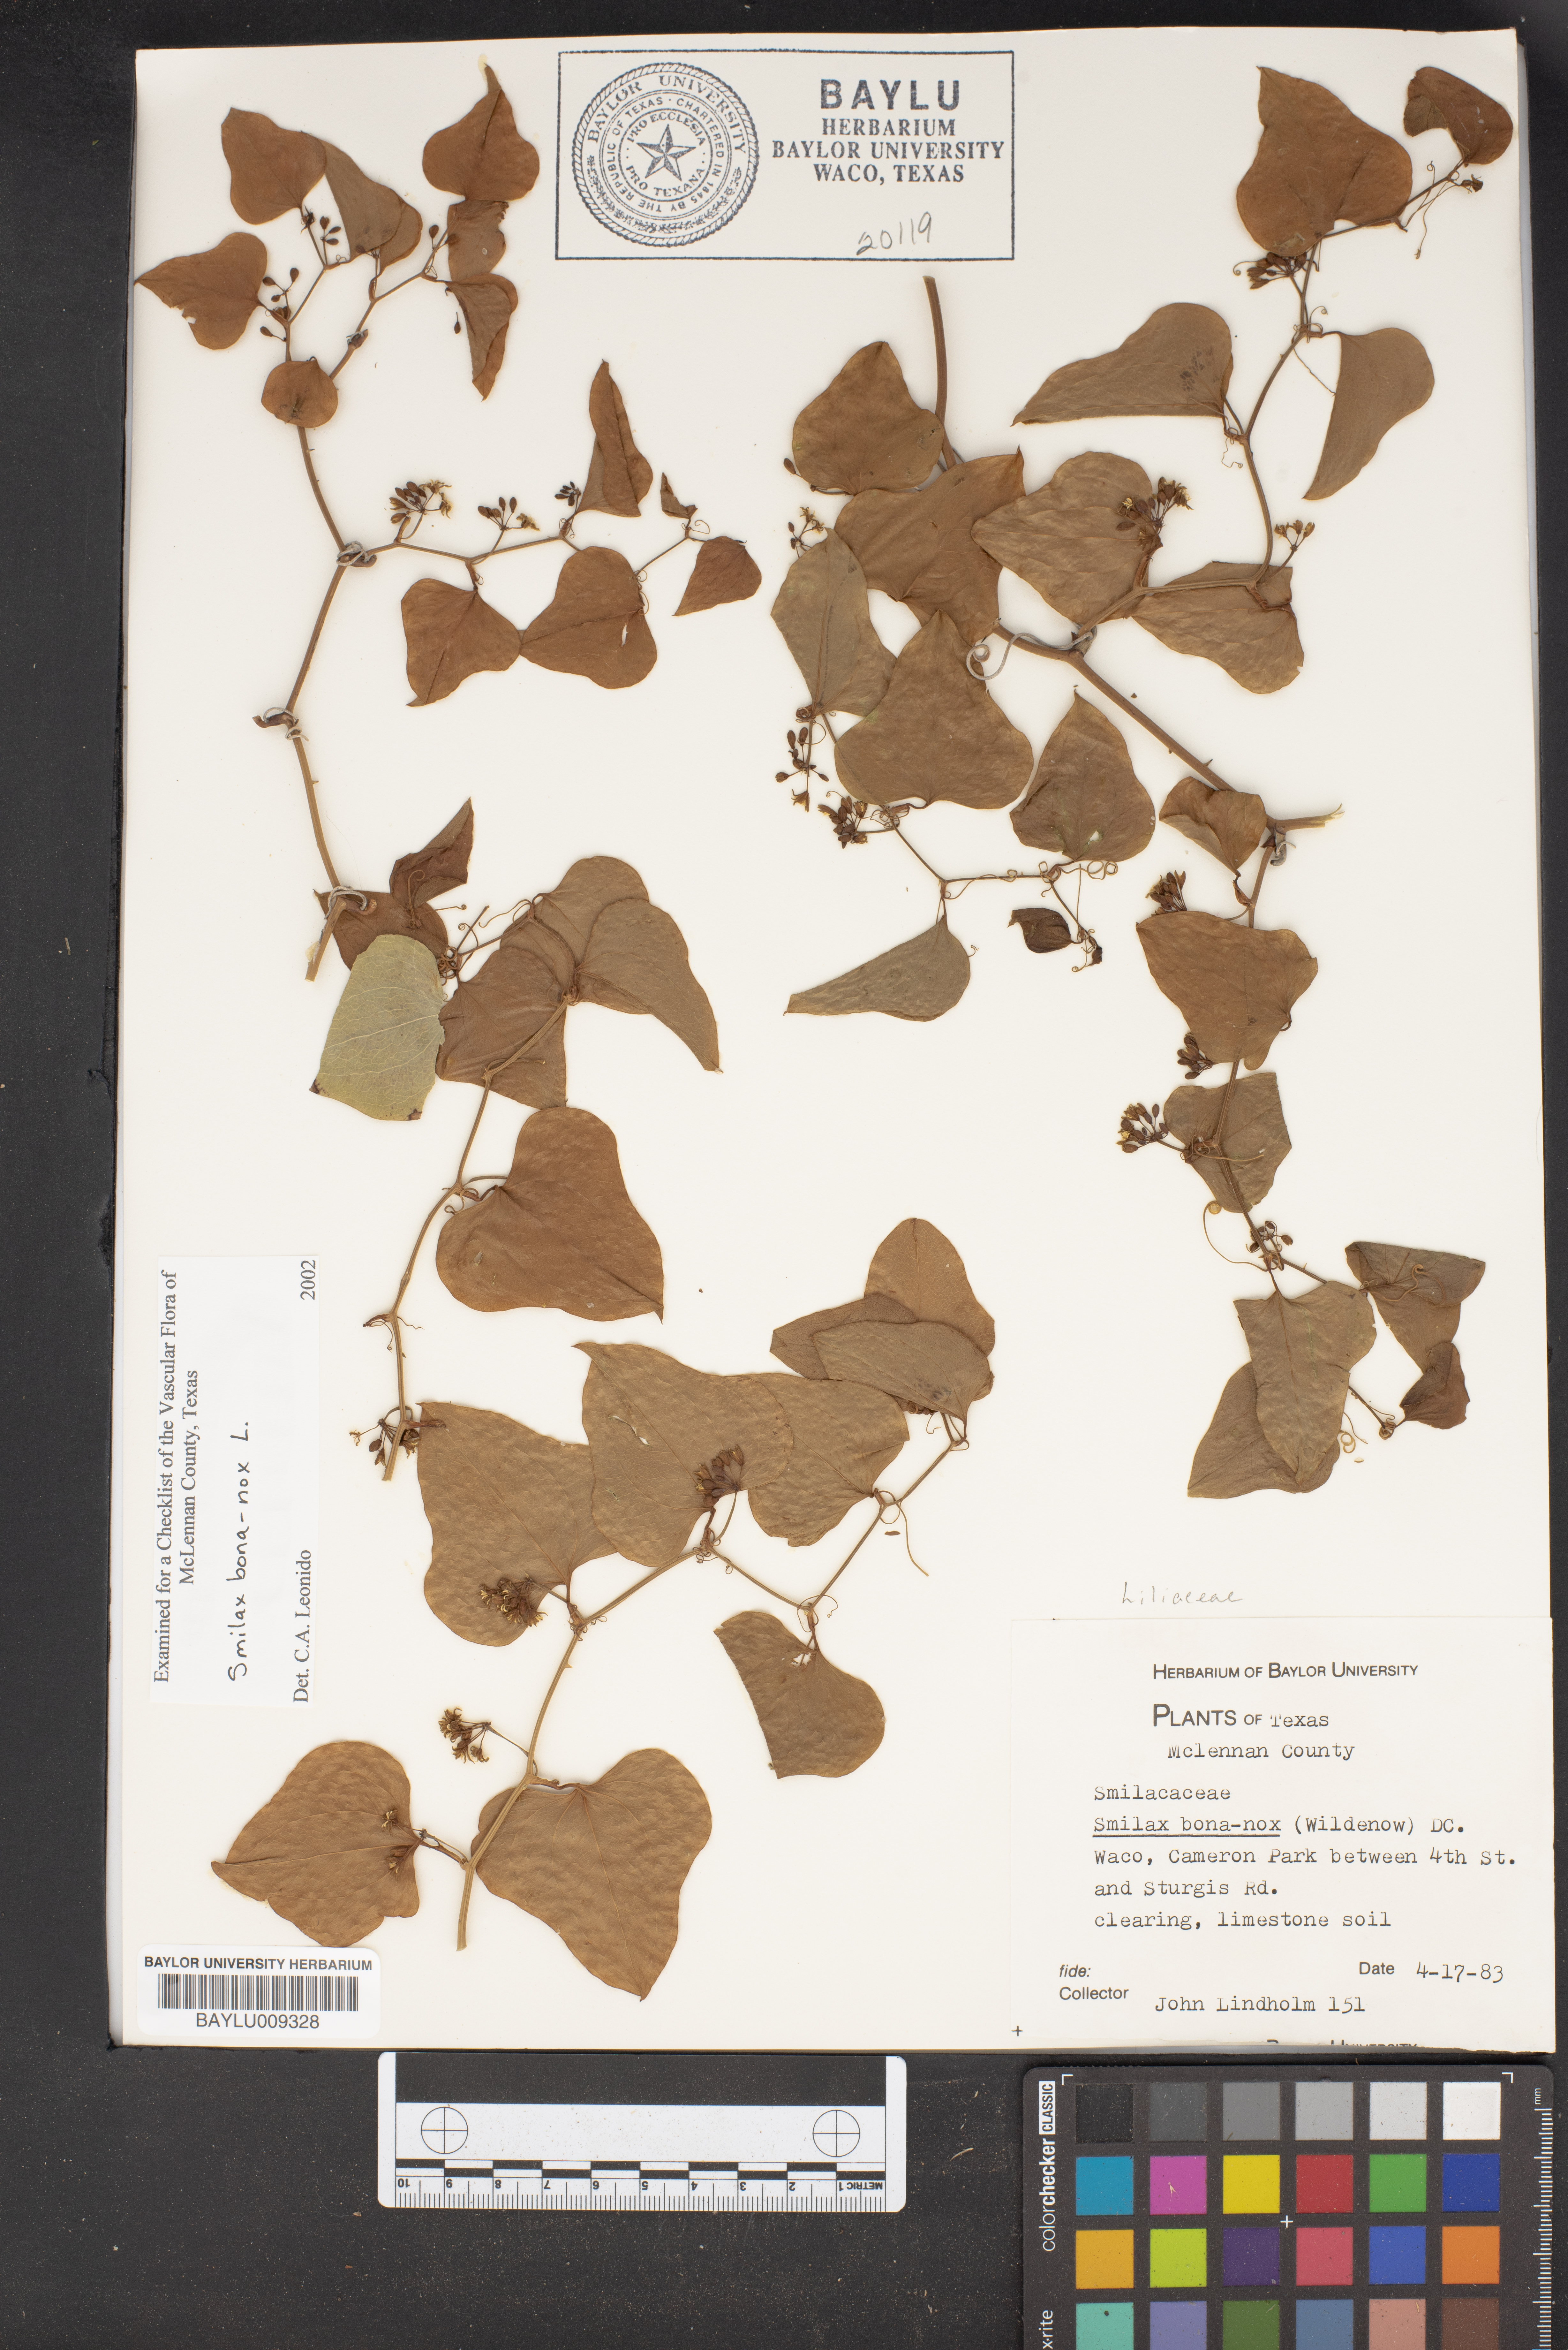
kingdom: Plantae
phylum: Tracheophyta
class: Liliopsida
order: Liliales
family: Smilacaceae
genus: Smilax
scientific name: Smilax bona-nox
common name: Catbrier
